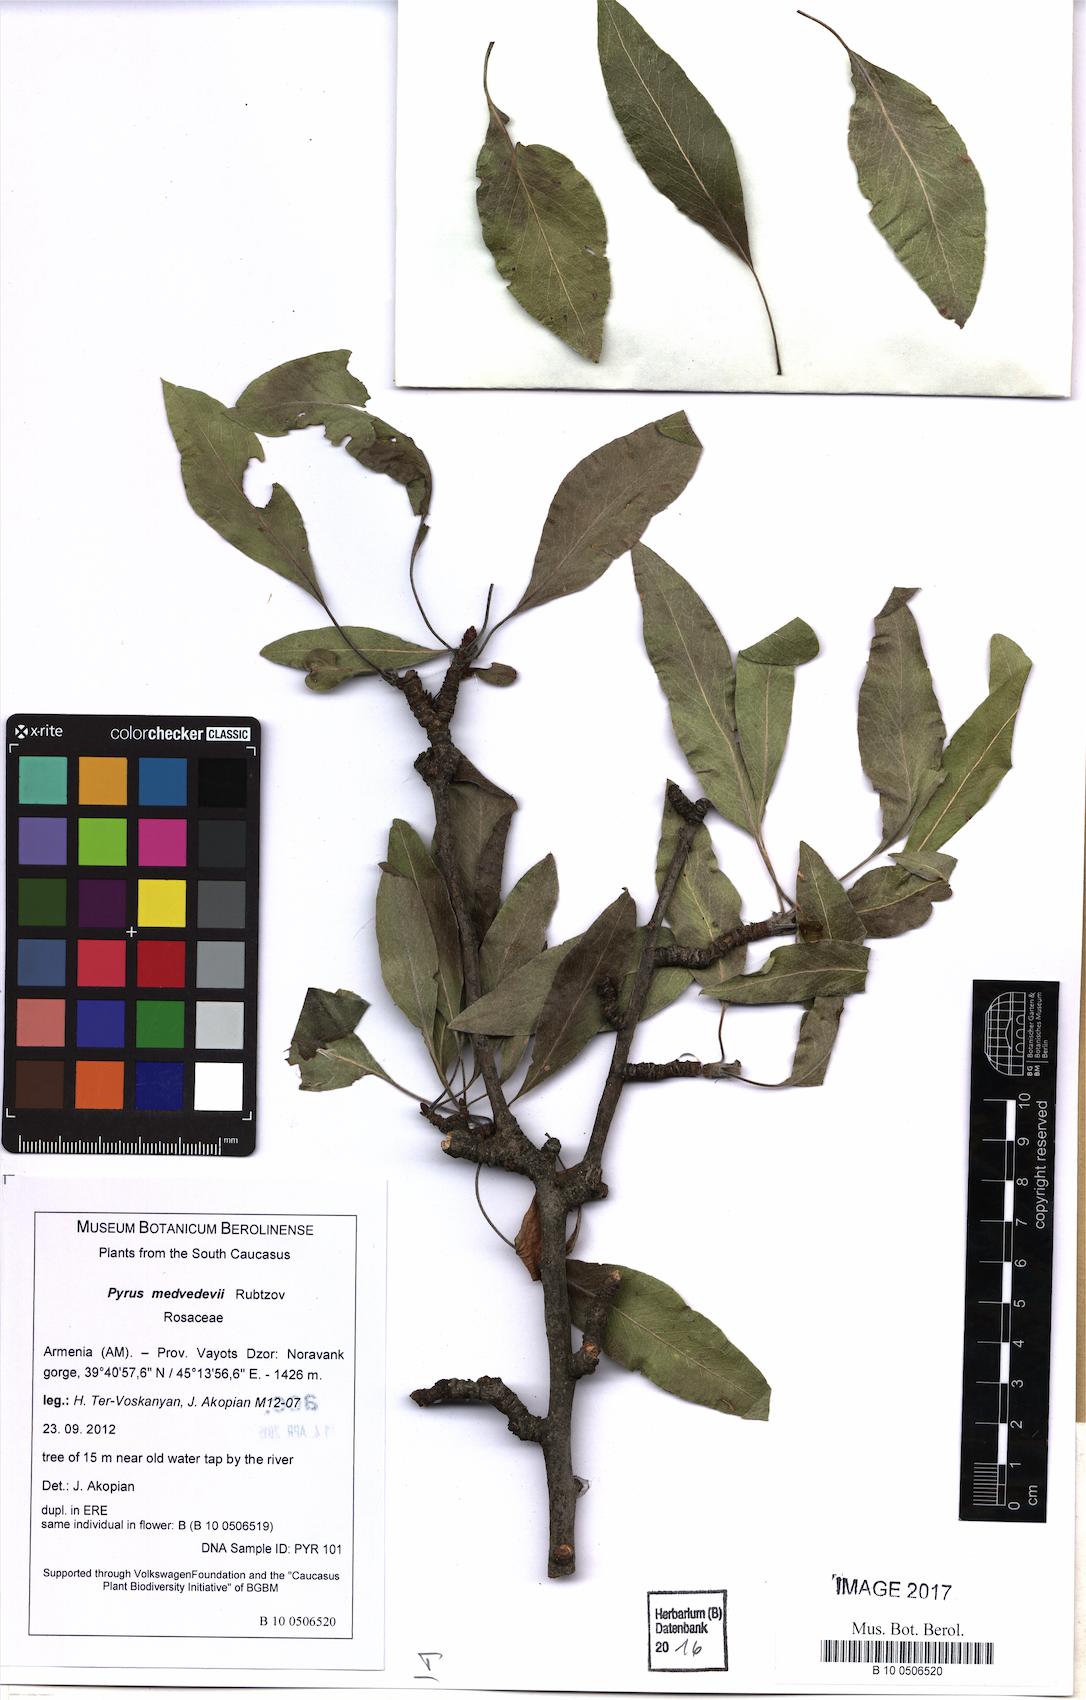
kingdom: Plantae
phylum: Tracheophyta
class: Magnoliopsida
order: Rosales
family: Rosaceae
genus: Pyrus
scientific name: Pyrus medvedevii
